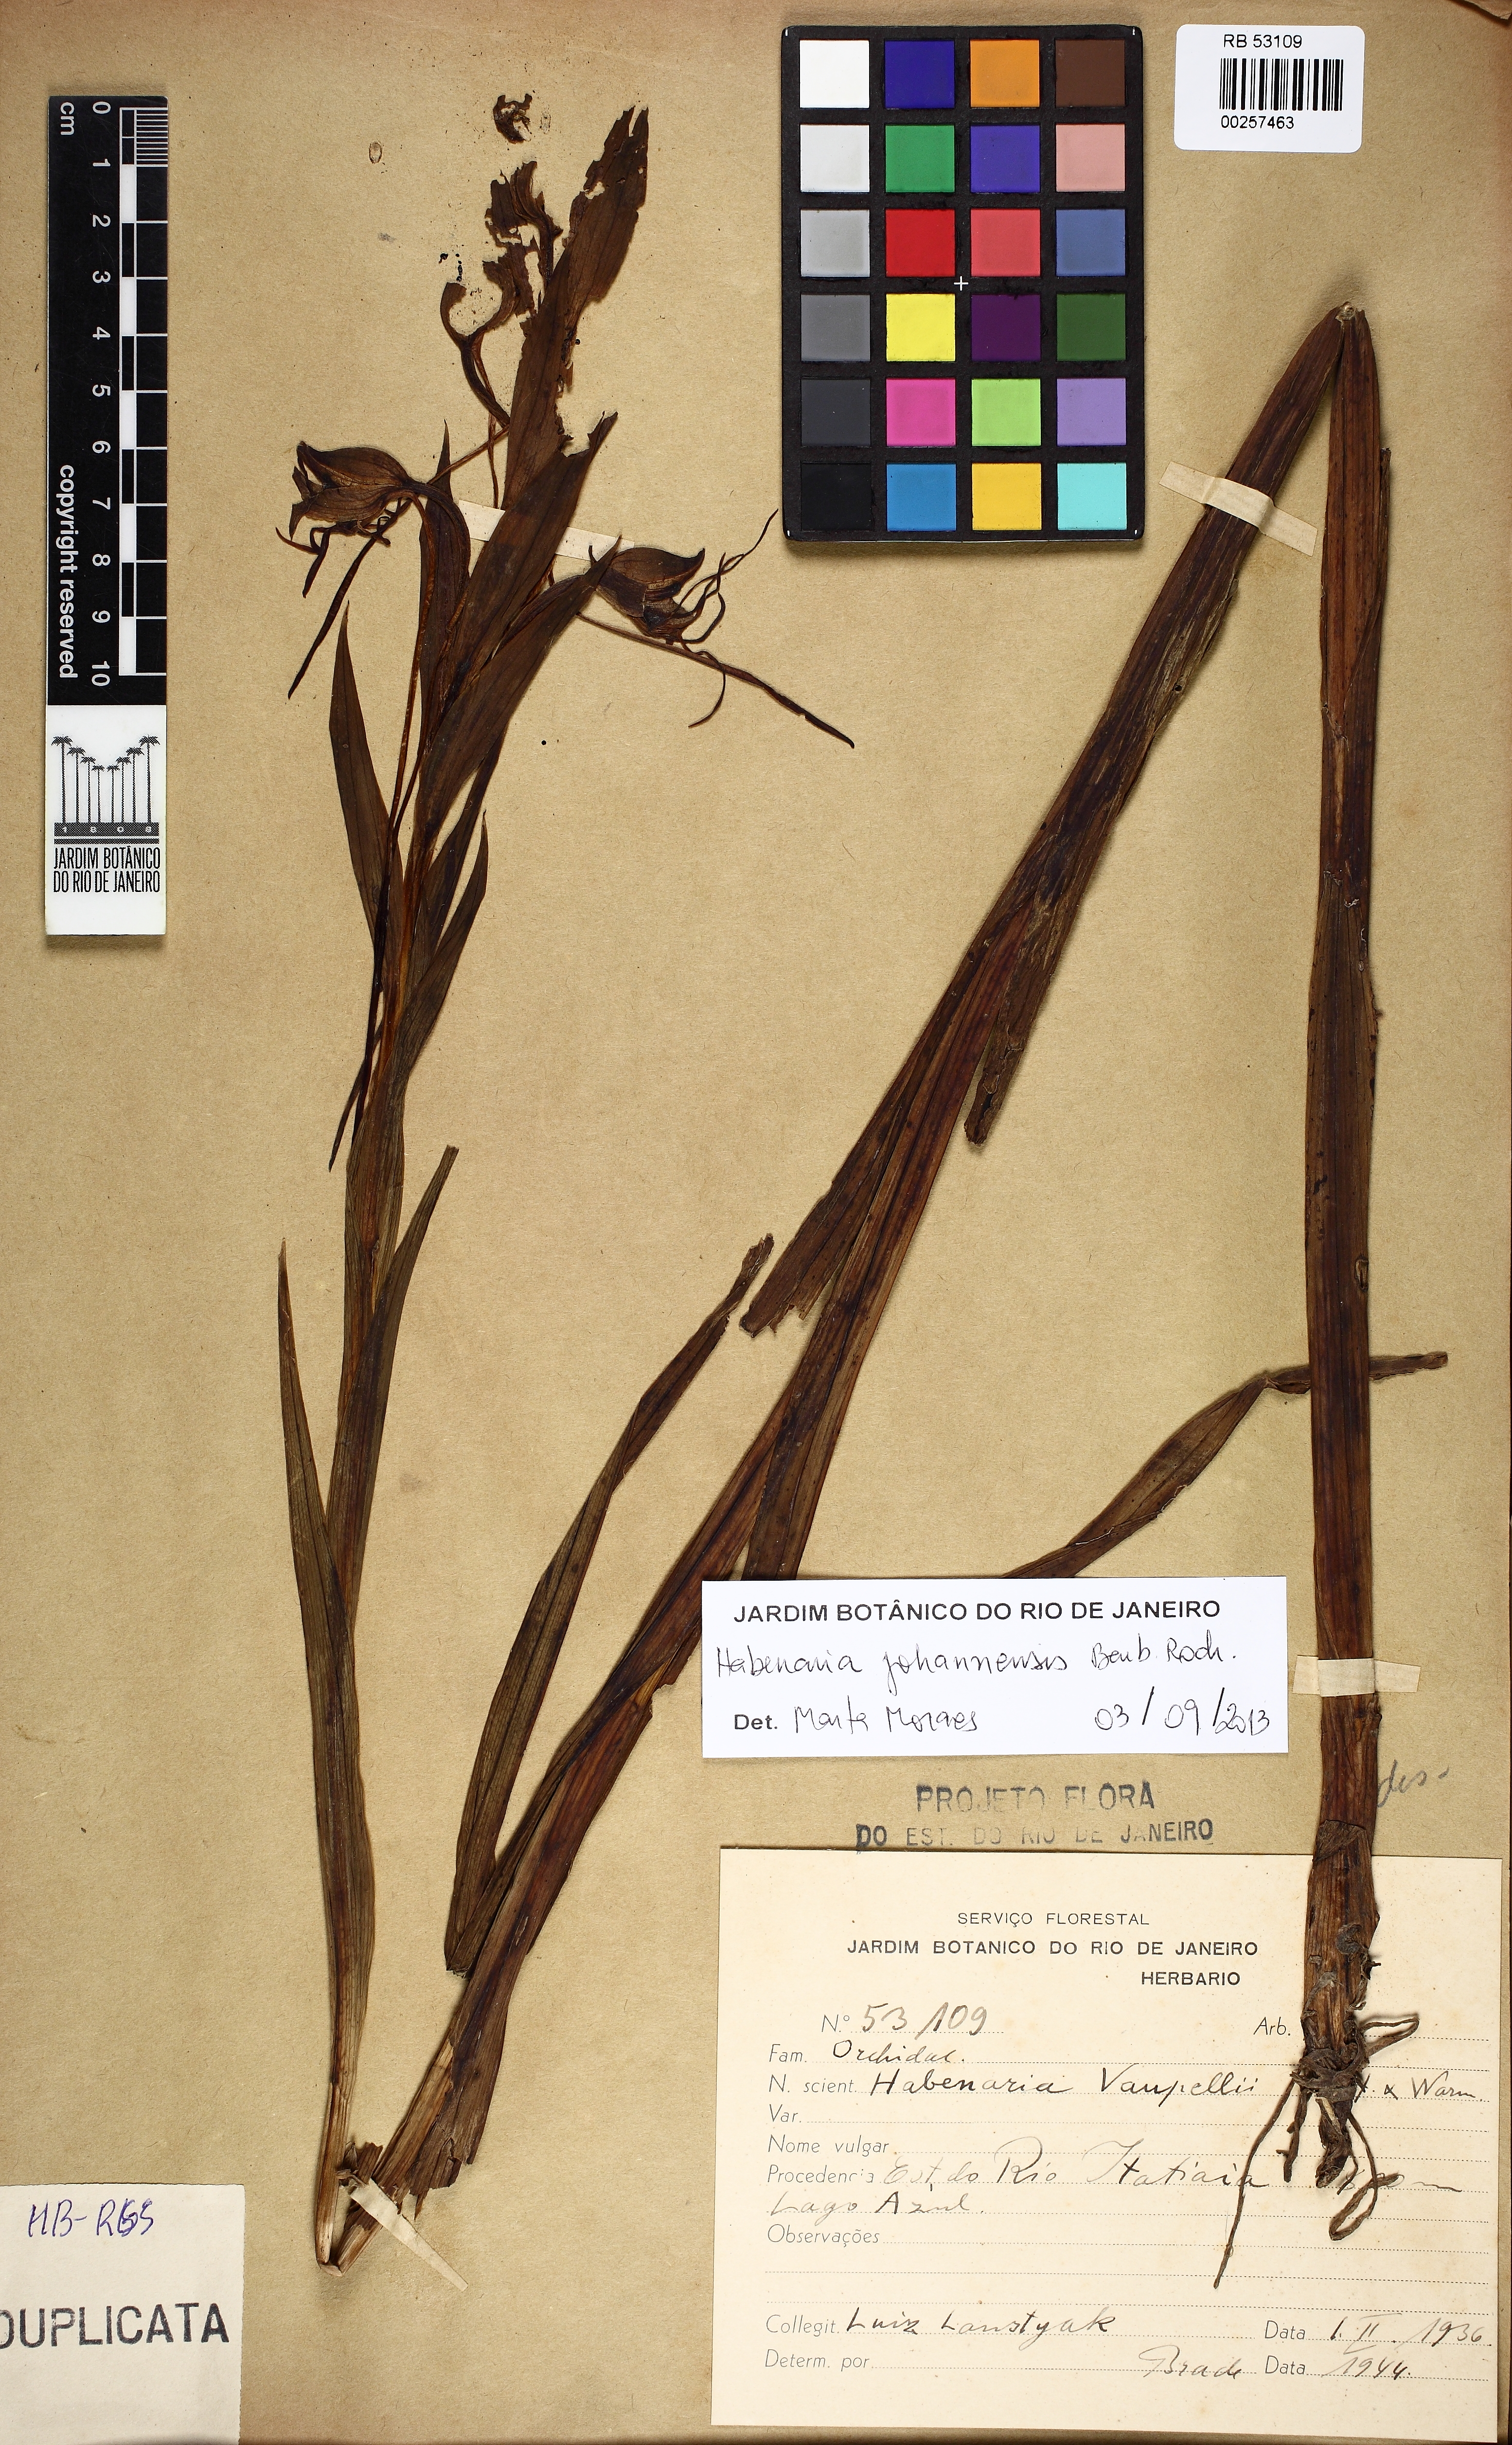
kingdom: Plantae
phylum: Tracheophyta
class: Liliopsida
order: Asparagales
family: Orchidaceae
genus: Habenaria
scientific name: Habenaria johannensis
